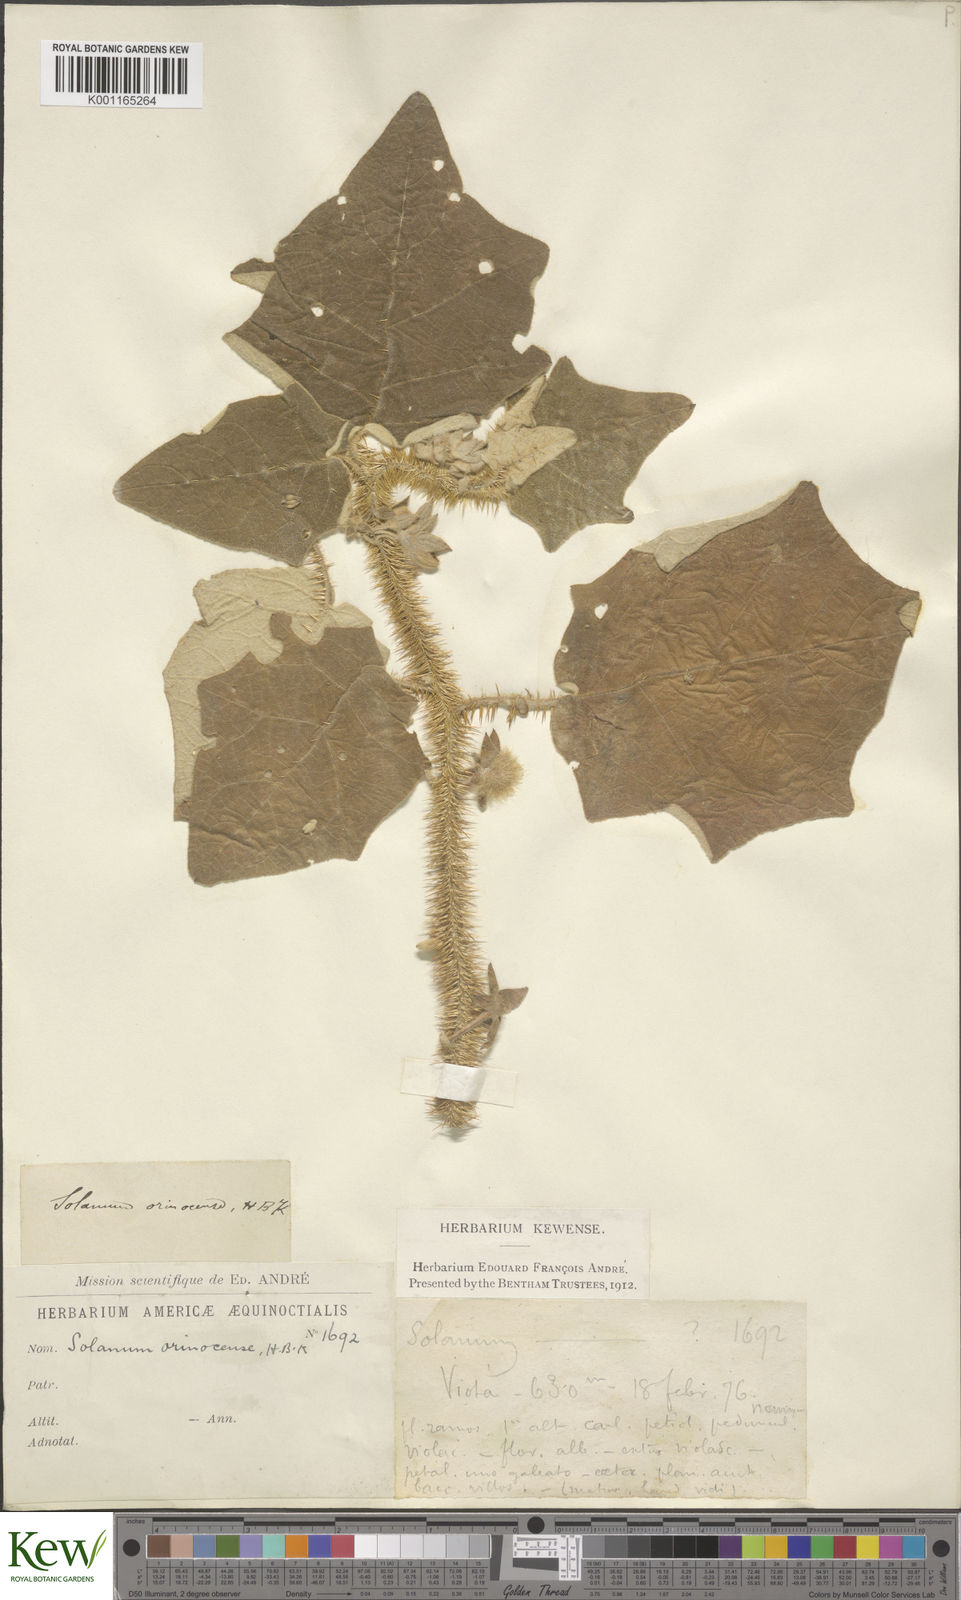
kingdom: Plantae
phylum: Tracheophyta
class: Magnoliopsida
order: Solanales
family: Solanaceae
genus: Solanum
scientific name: Solanum hirtum
